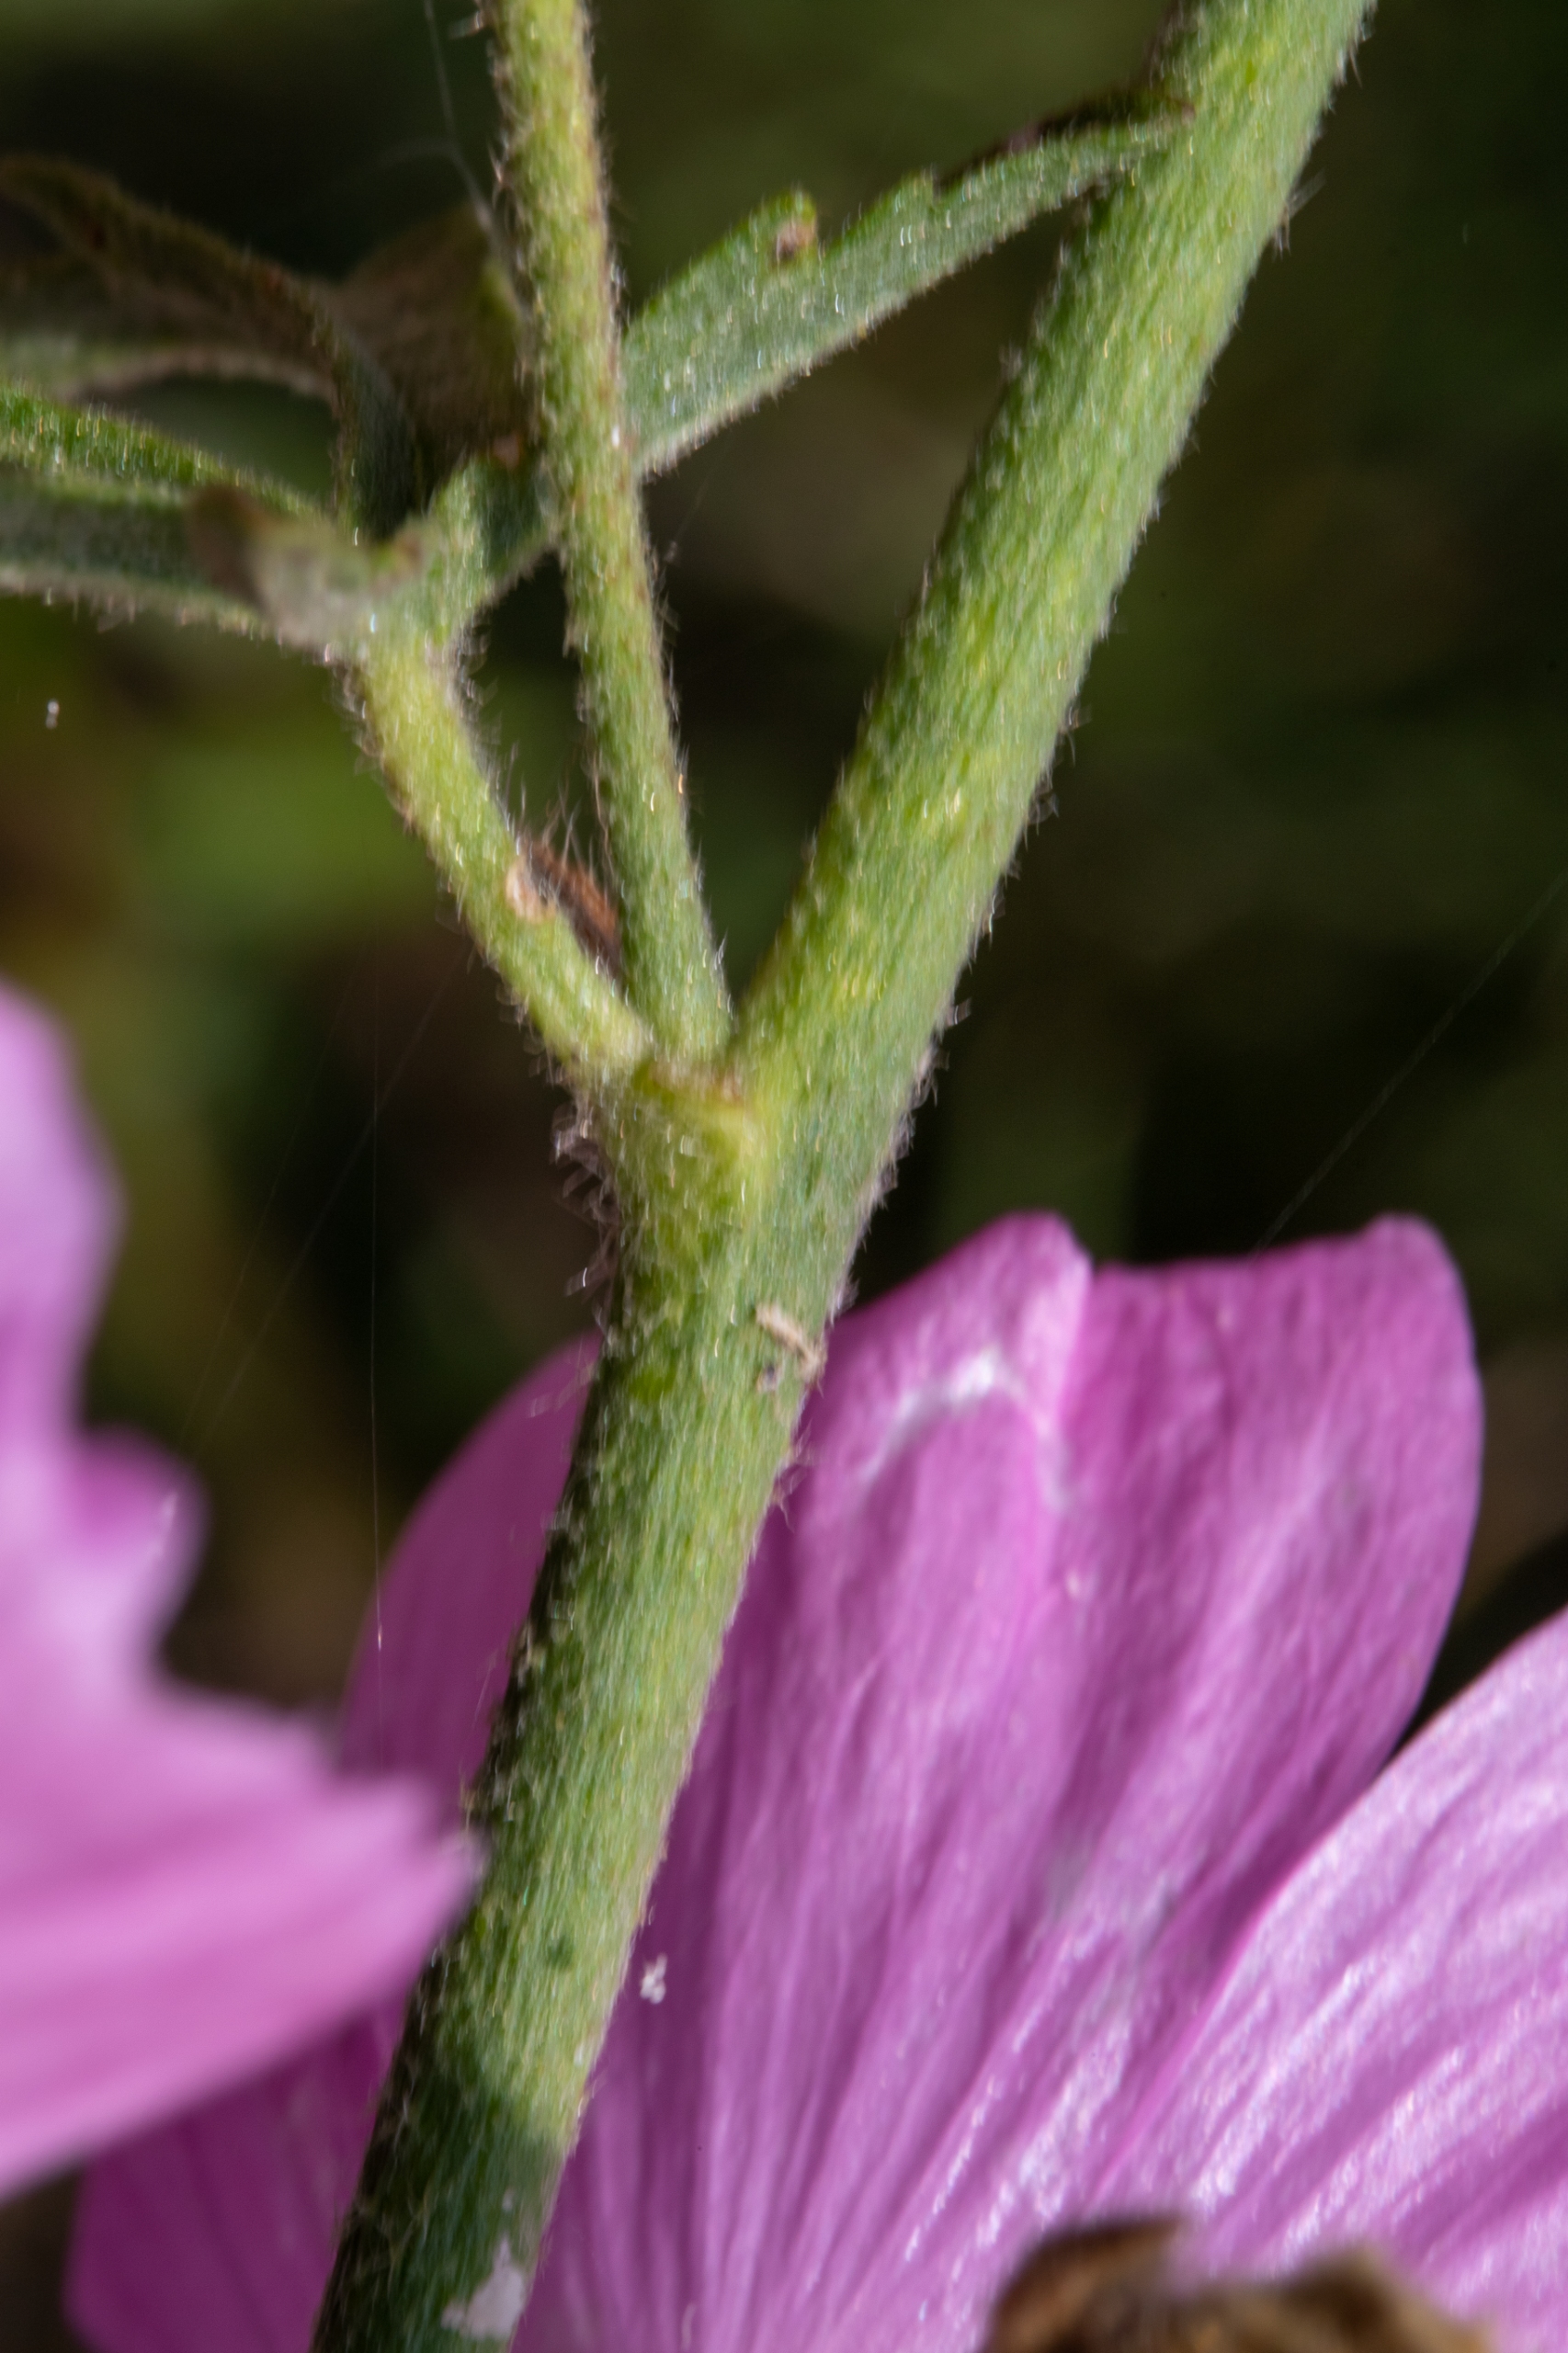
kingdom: Plantae
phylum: Tracheophyta
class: Magnoliopsida
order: Malvales
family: Malvaceae
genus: Malva
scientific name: Malva alcea
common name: Rosen-katost
